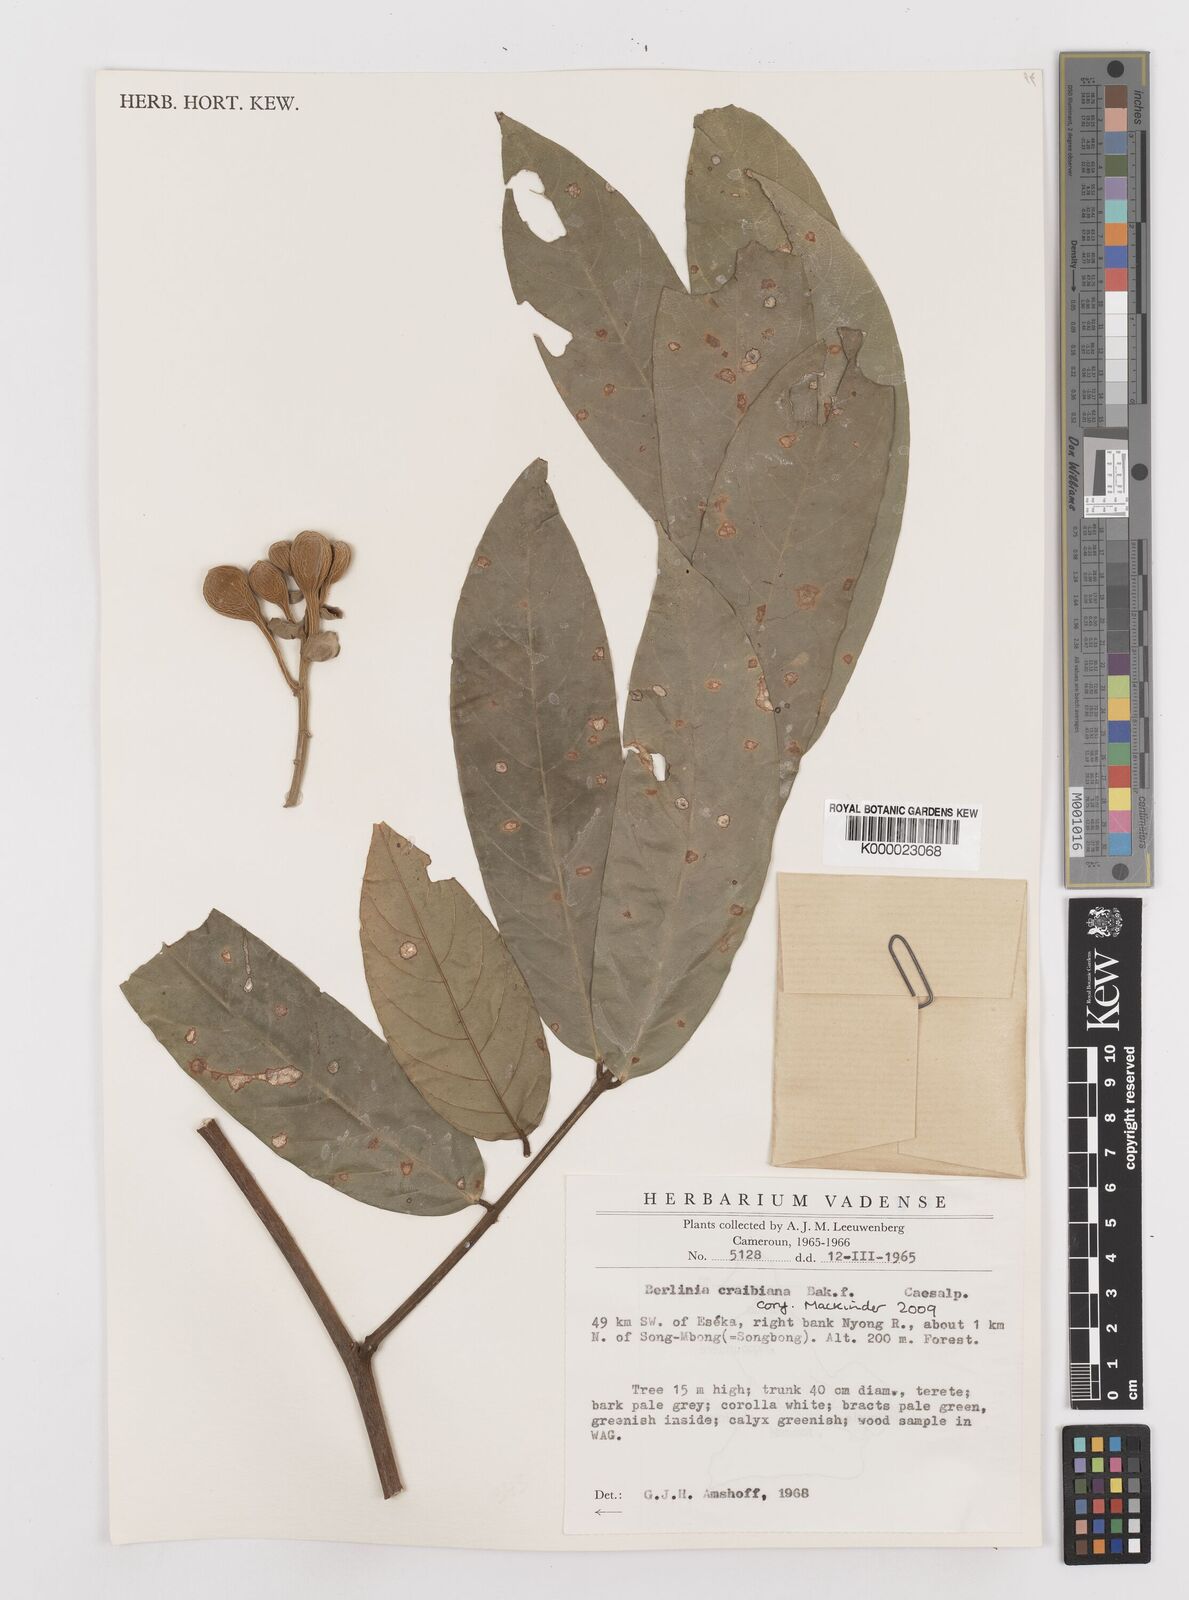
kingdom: Plantae
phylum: Tracheophyta
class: Magnoliopsida
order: Fabales
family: Fabaceae
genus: Berlinia
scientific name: Berlinia craibiana
